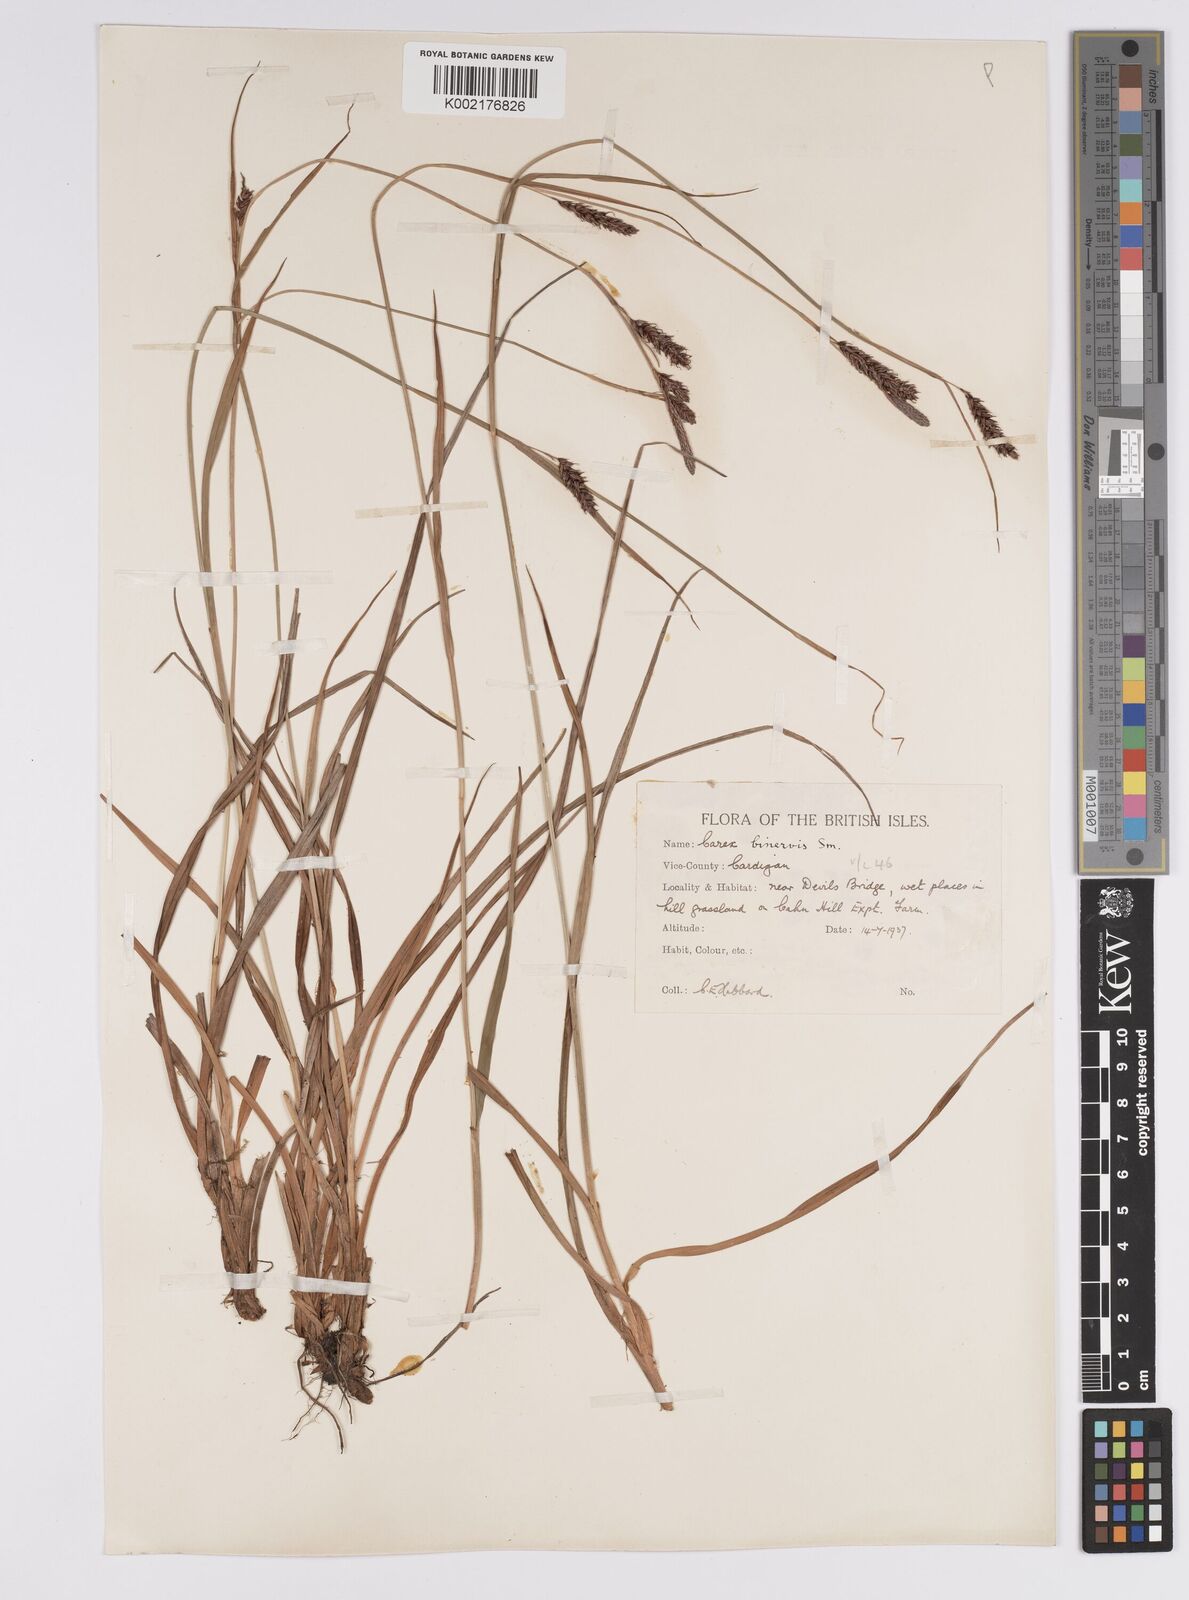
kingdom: Plantae
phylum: Tracheophyta
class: Liliopsida
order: Poales
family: Cyperaceae
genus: Carex
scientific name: Carex binervis
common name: Green-ribbed sedge
